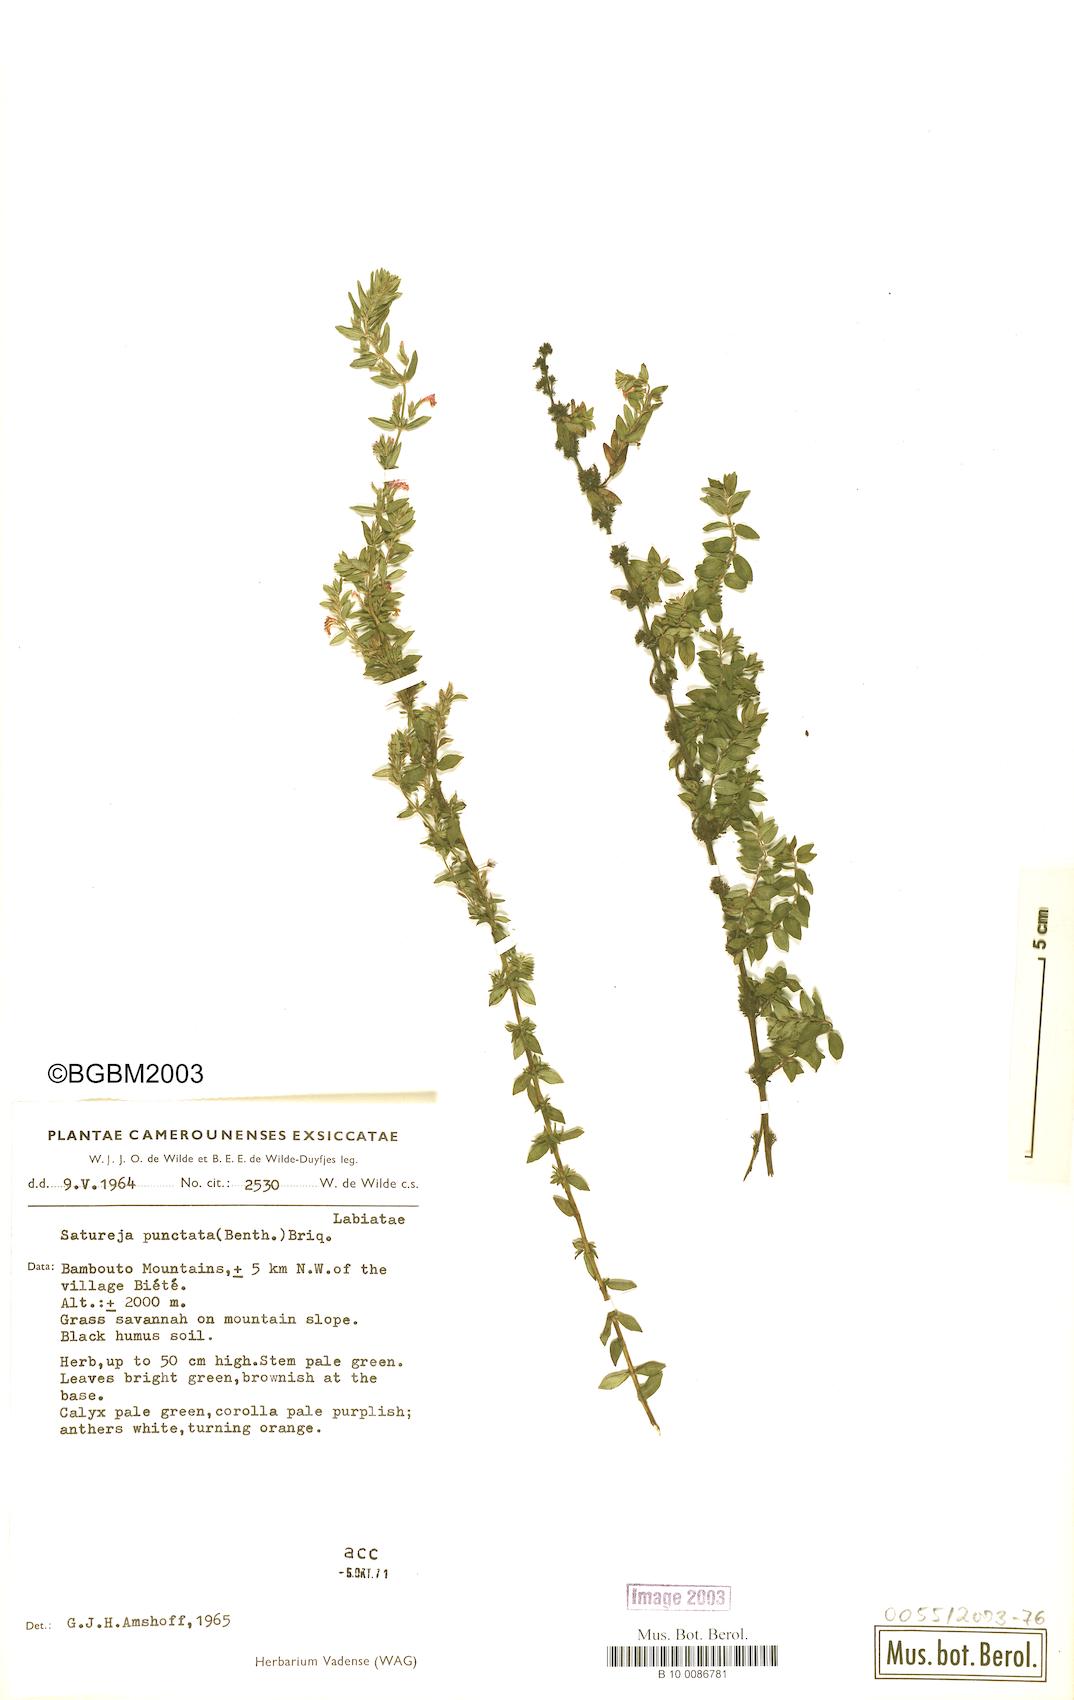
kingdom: Plantae
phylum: Tracheophyta
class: Magnoliopsida
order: Lamiales
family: Lamiaceae
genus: Micromeria
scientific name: Micromeria imbricata
